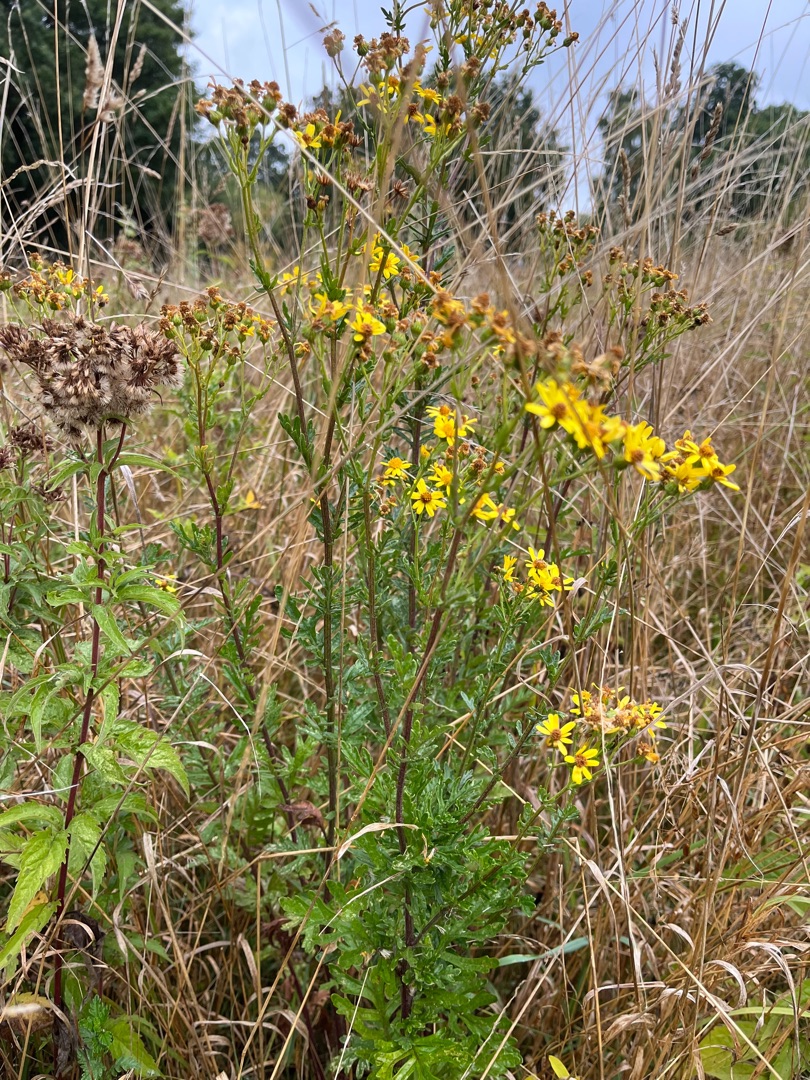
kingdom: Plantae
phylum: Tracheophyta
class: Magnoliopsida
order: Asterales
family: Asteraceae
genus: Jacobaea
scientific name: Jacobaea erucifolia
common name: Smalfliget brandbæger
